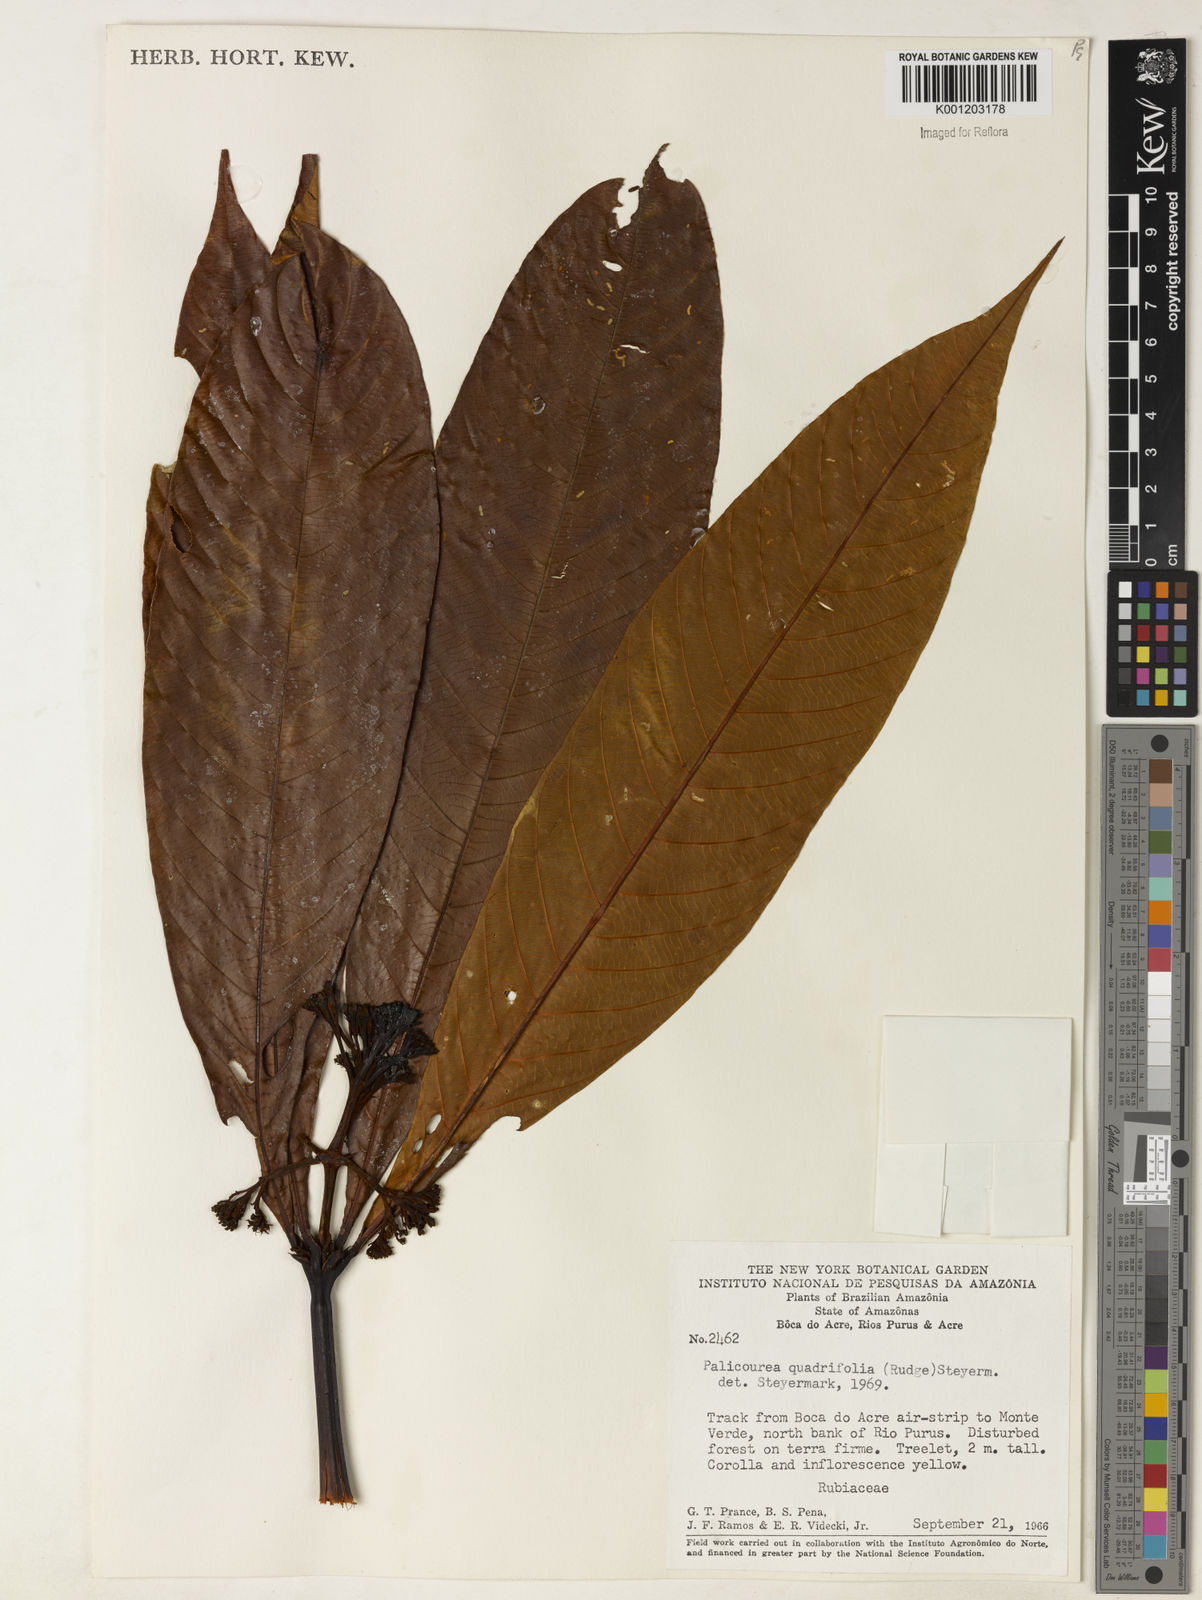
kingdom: Plantae
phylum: Tracheophyta
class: Magnoliopsida
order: Gentianales
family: Rubiaceae
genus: Palicourea
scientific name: Palicourea quadrifolia
